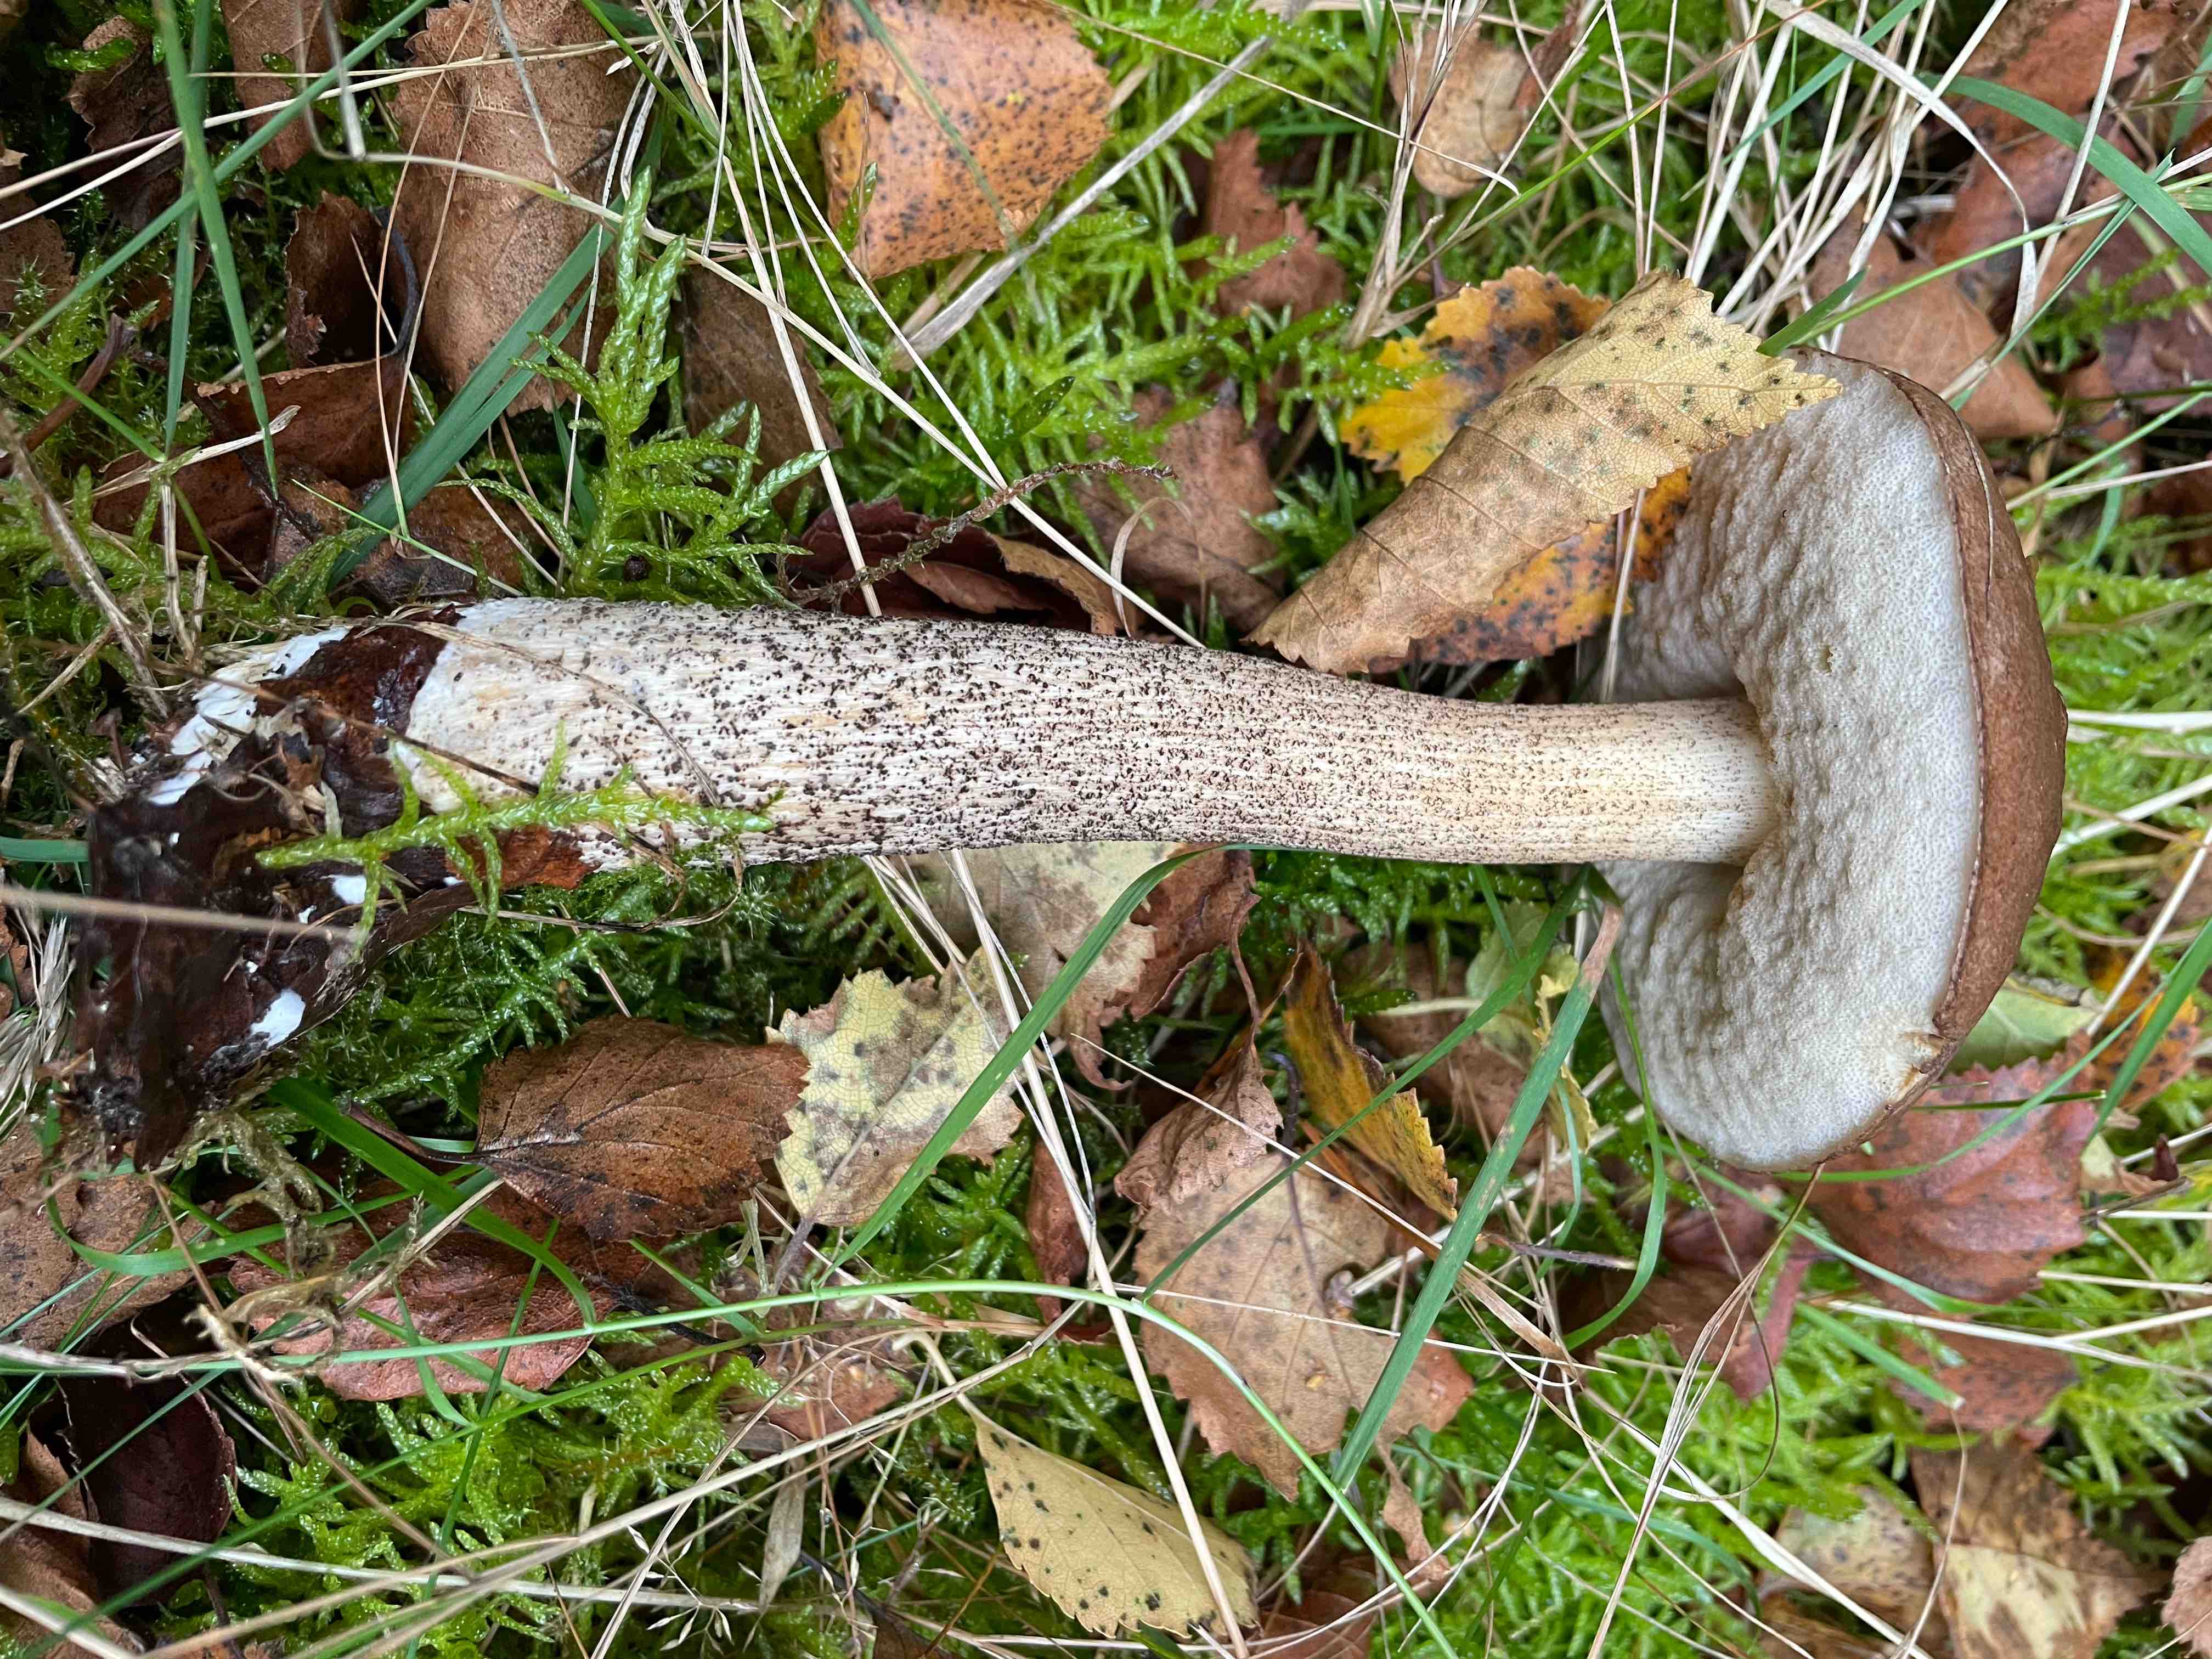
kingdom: Fungi
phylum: Basidiomycota
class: Agaricomycetes
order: Boletales
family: Boletaceae
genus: Leccinum
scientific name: Leccinum scabrum
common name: brun skælrørhat
